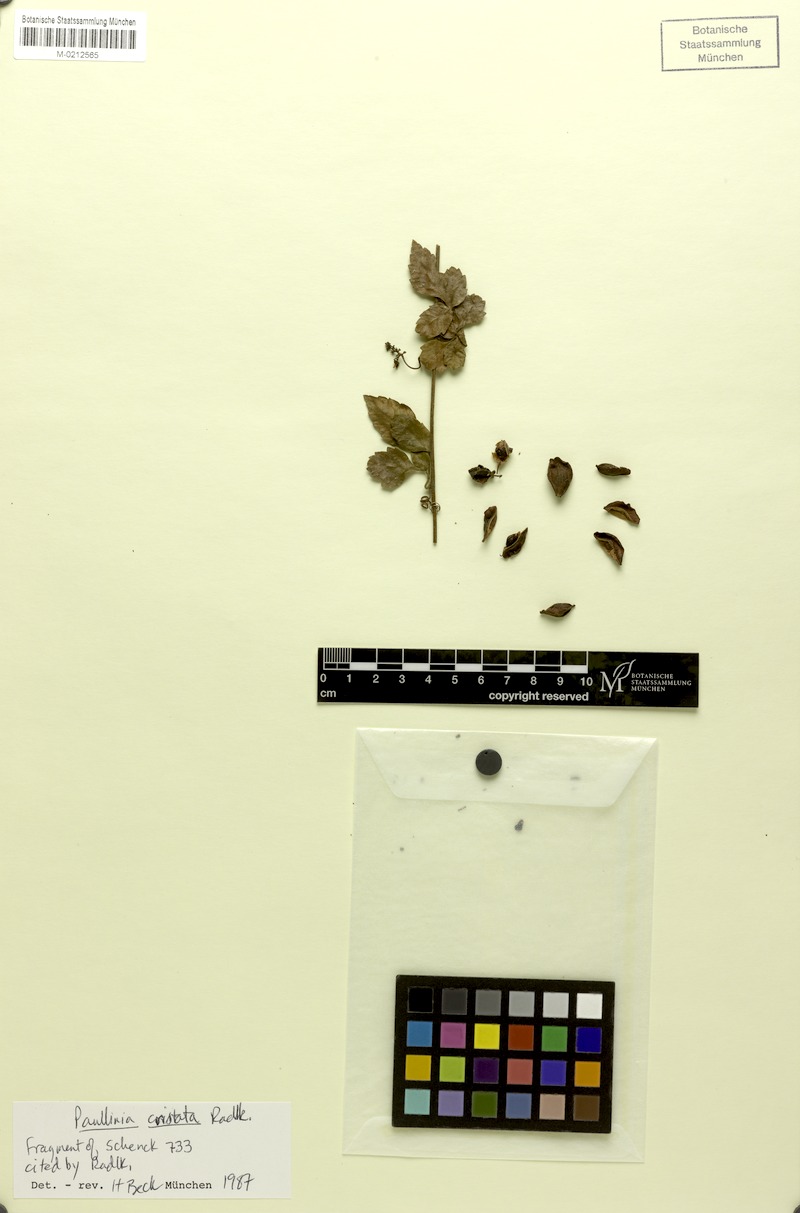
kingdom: Plantae
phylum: Tracheophyta
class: Magnoliopsida
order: Sapindales
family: Sapindaceae
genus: Paullinia
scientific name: Paullinia cristata
